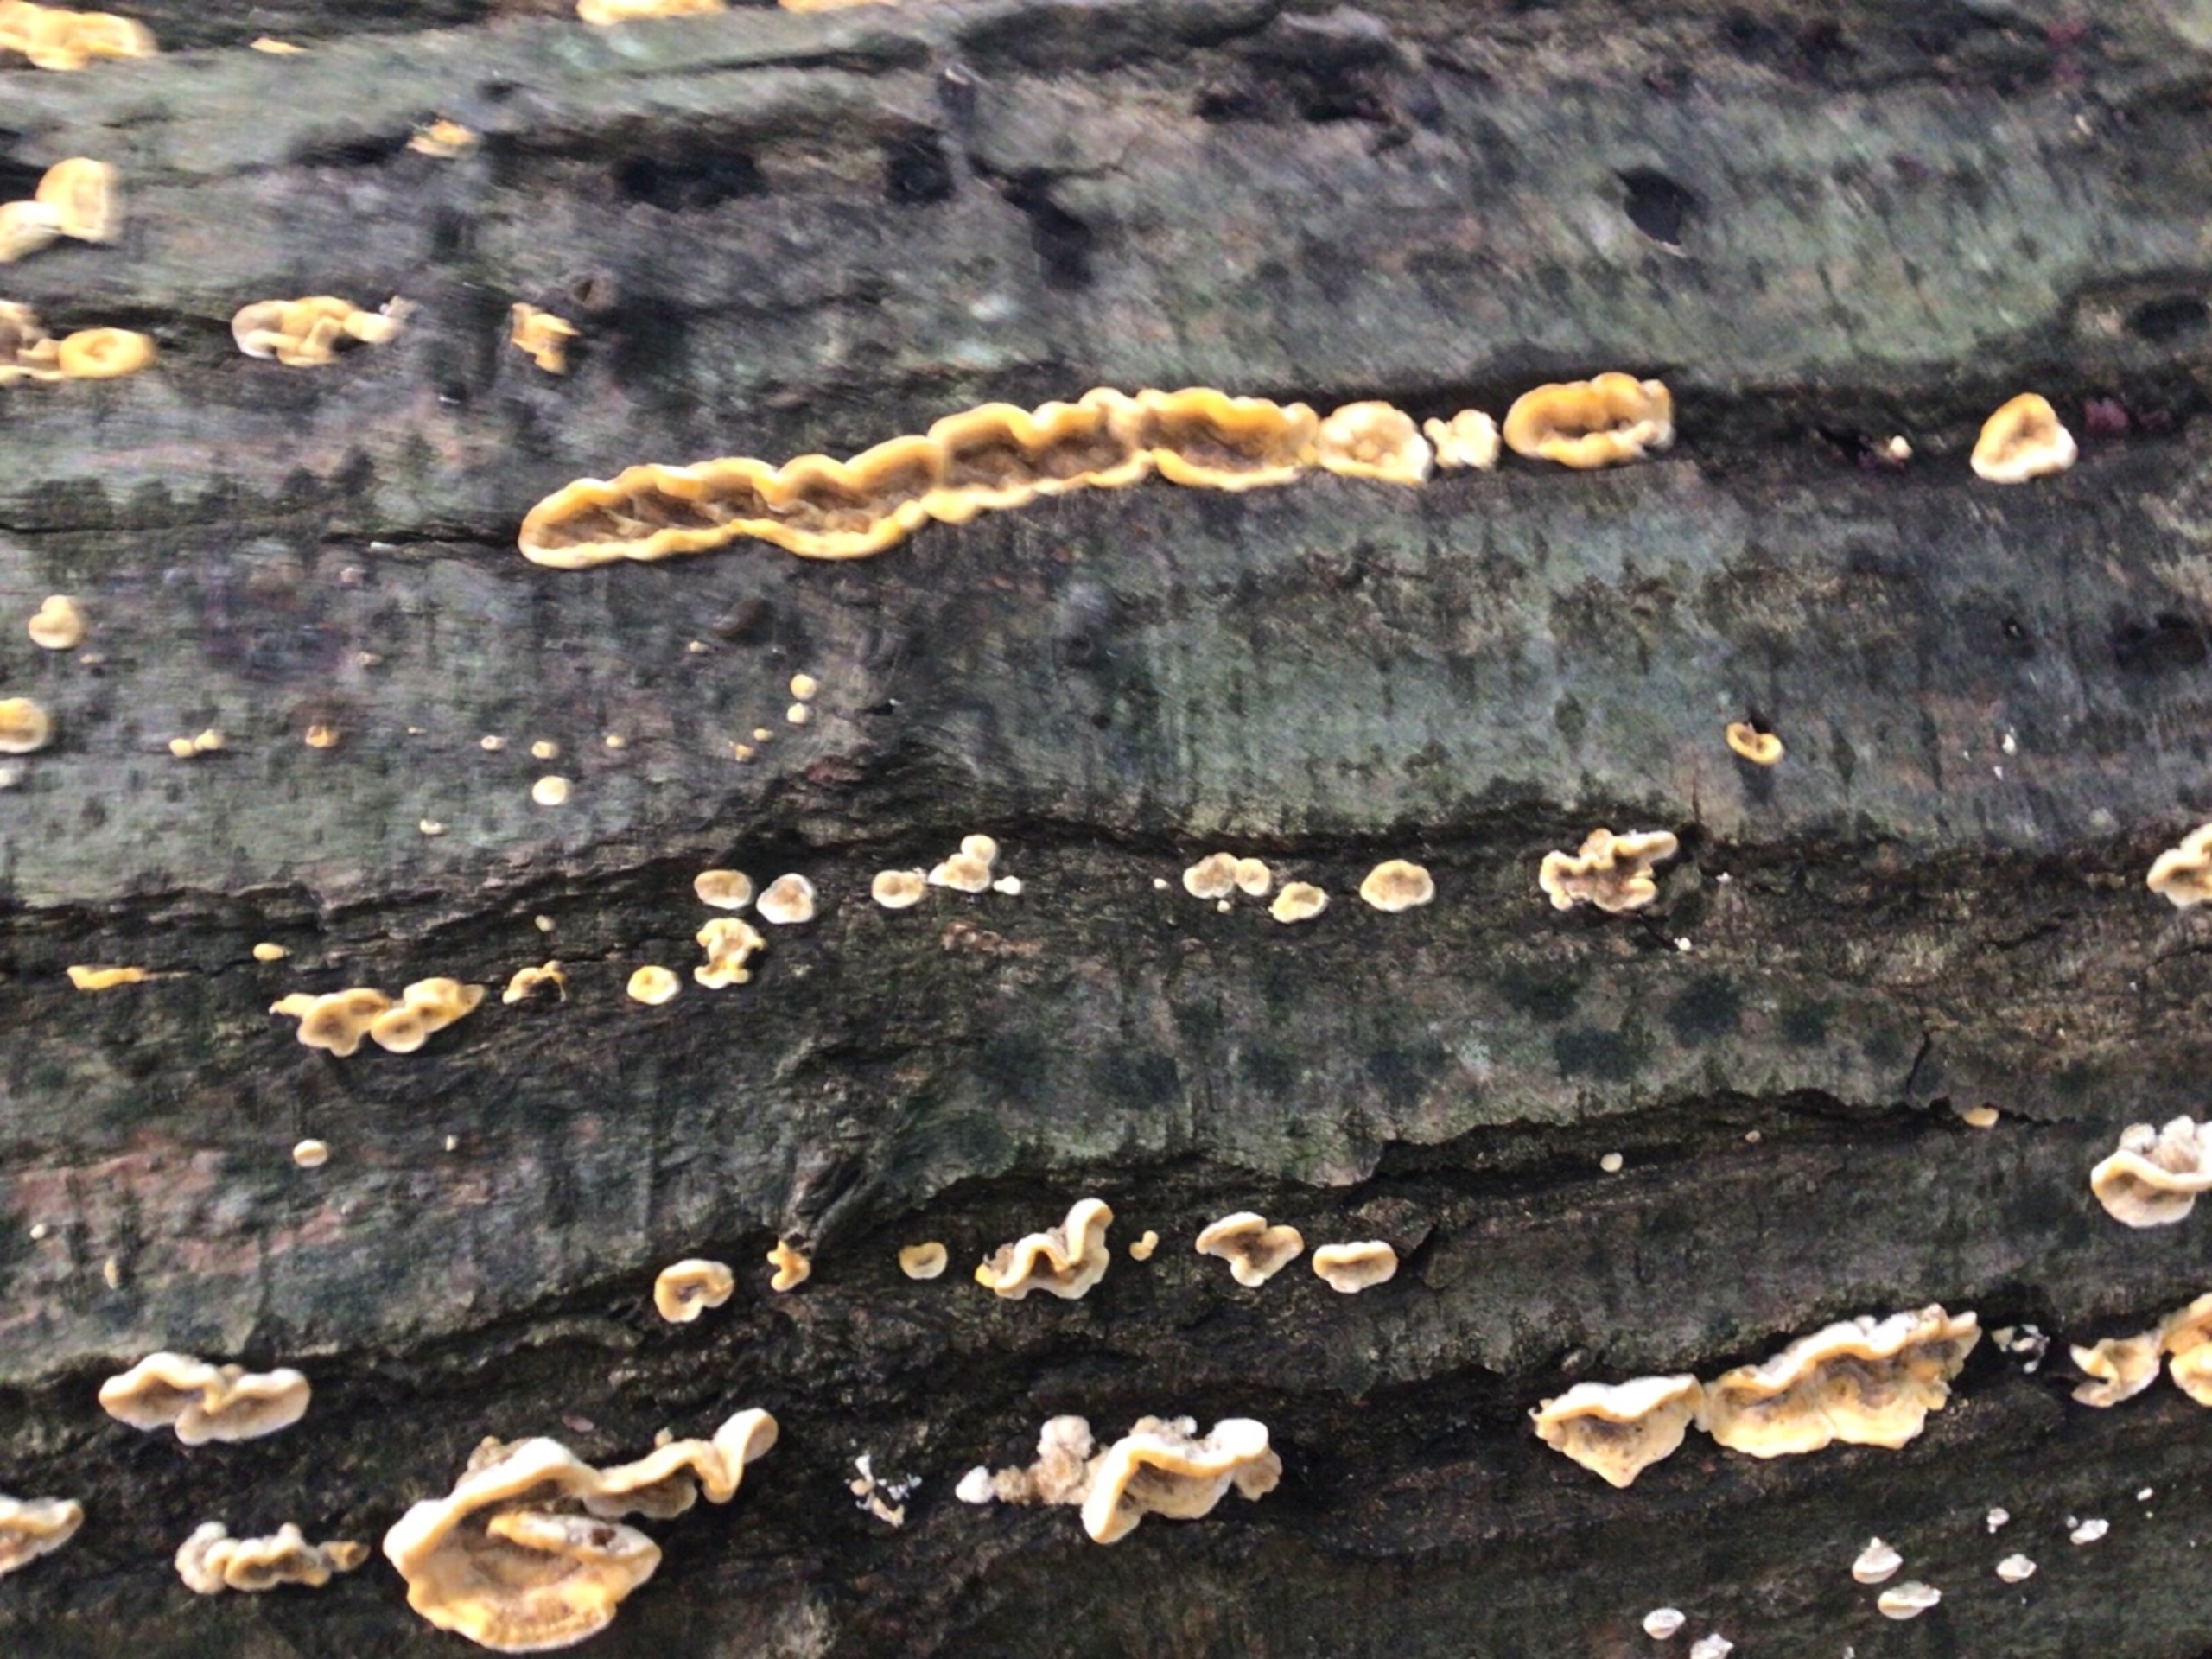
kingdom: Fungi
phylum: Basidiomycota
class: Agaricomycetes
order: Russulales
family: Stereaceae
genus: Stereum
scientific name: Stereum hirsutum
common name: Håret lædersvamp
